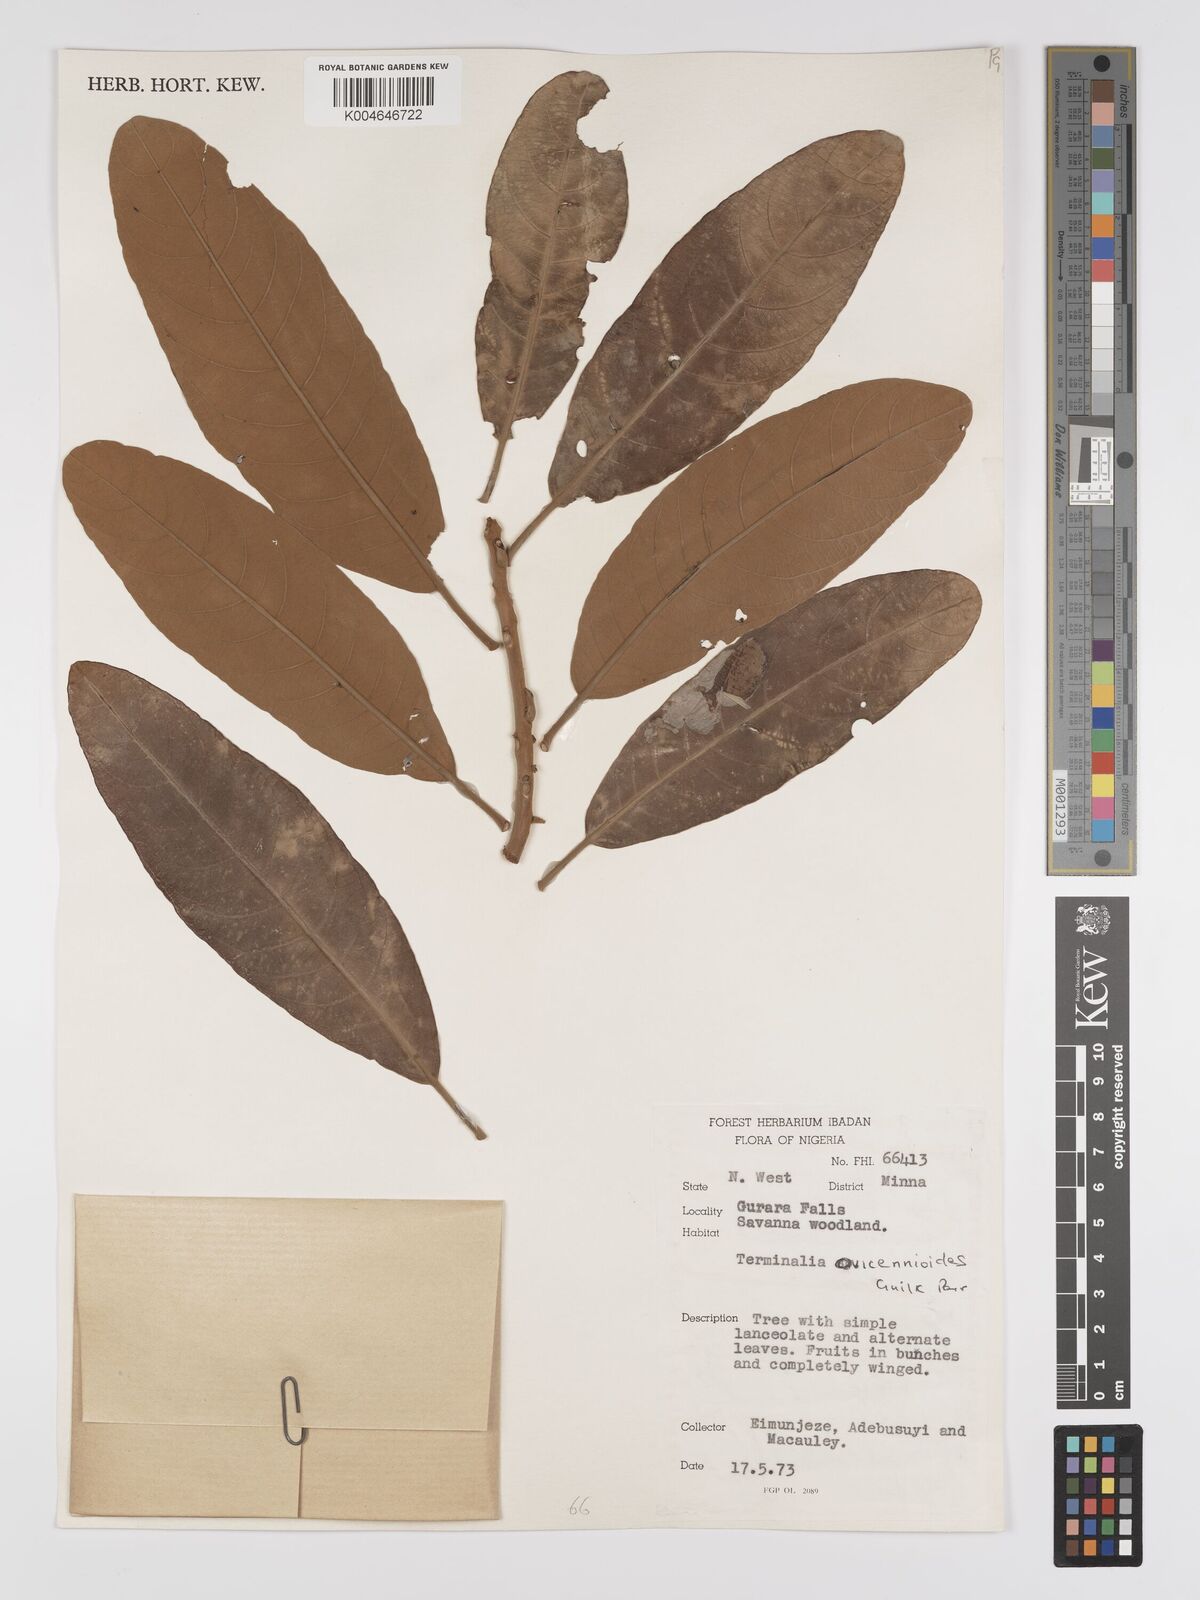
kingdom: Plantae
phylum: Tracheophyta
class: Magnoliopsida
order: Myrtales
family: Combretaceae
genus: Terminalia
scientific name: Terminalia avicennioides
